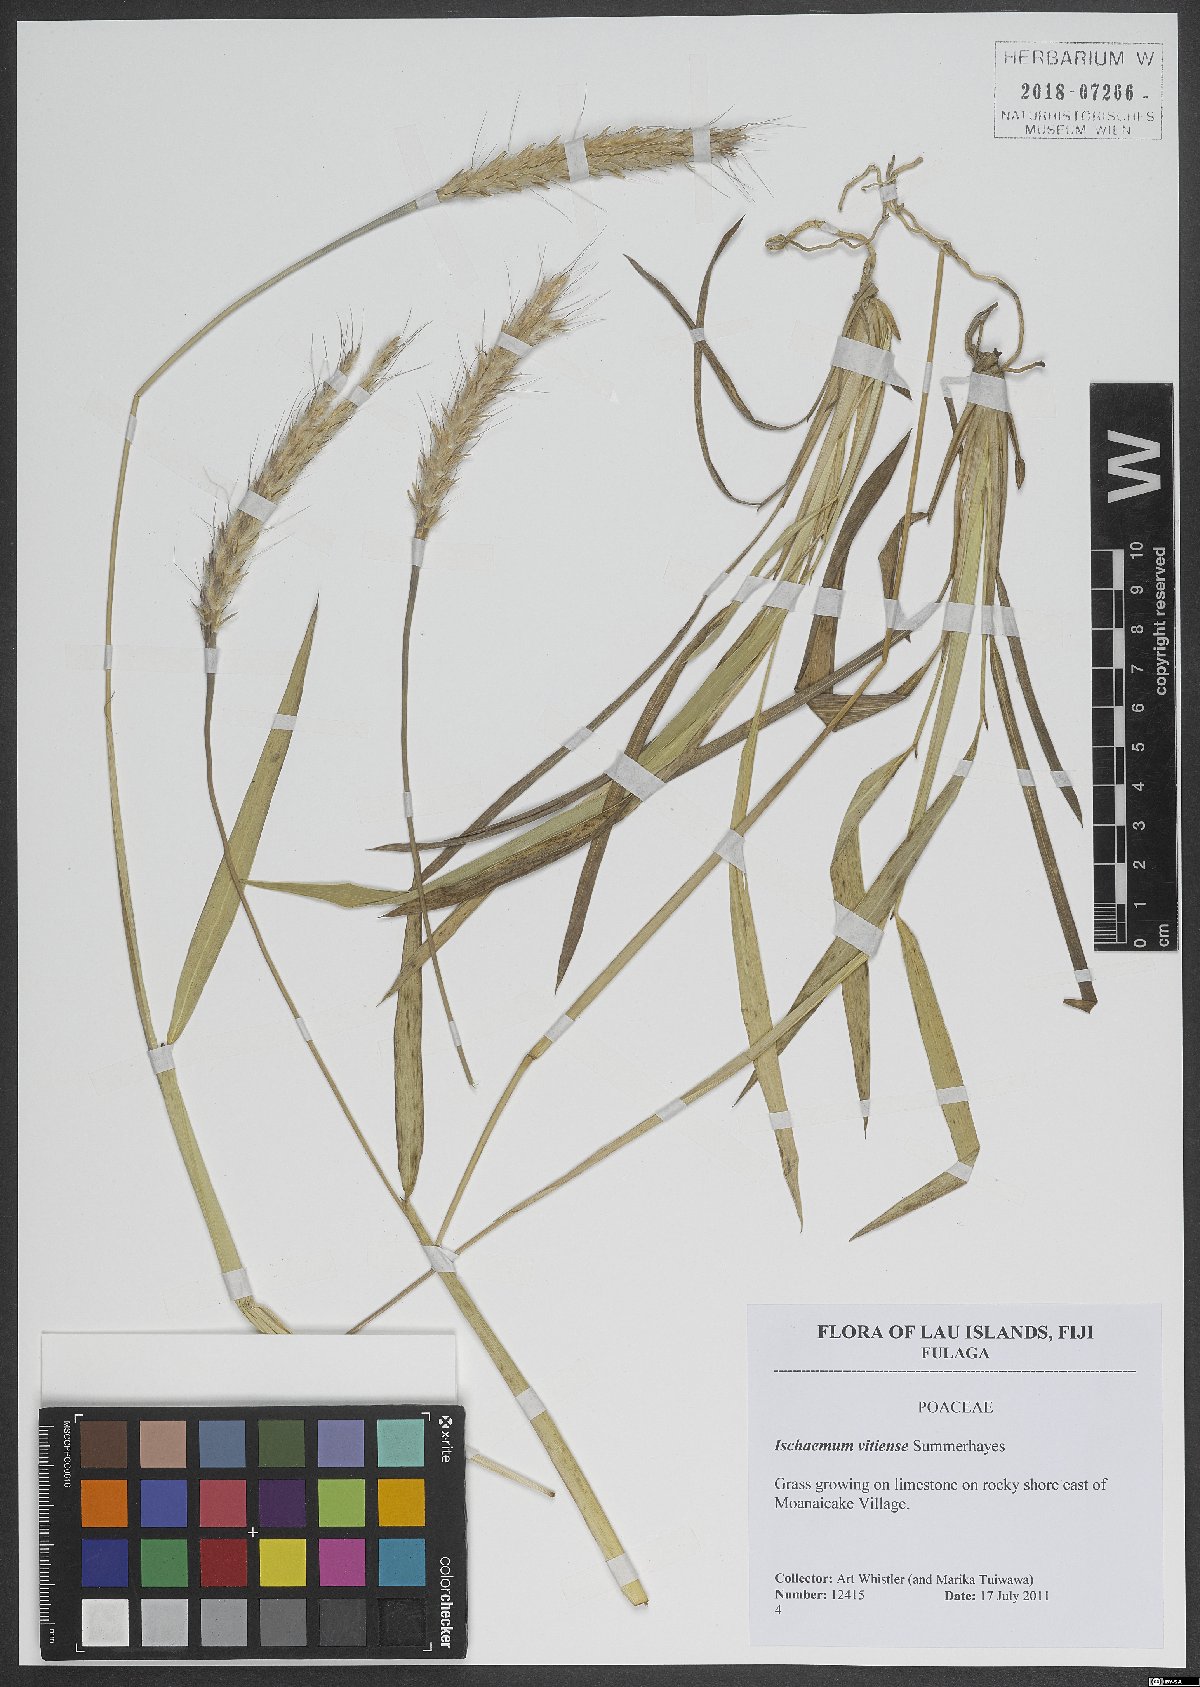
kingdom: Plantae
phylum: Tracheophyta
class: Liliopsida
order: Poales
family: Poaceae
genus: Ischaemum
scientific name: Ischaemum barbatum
